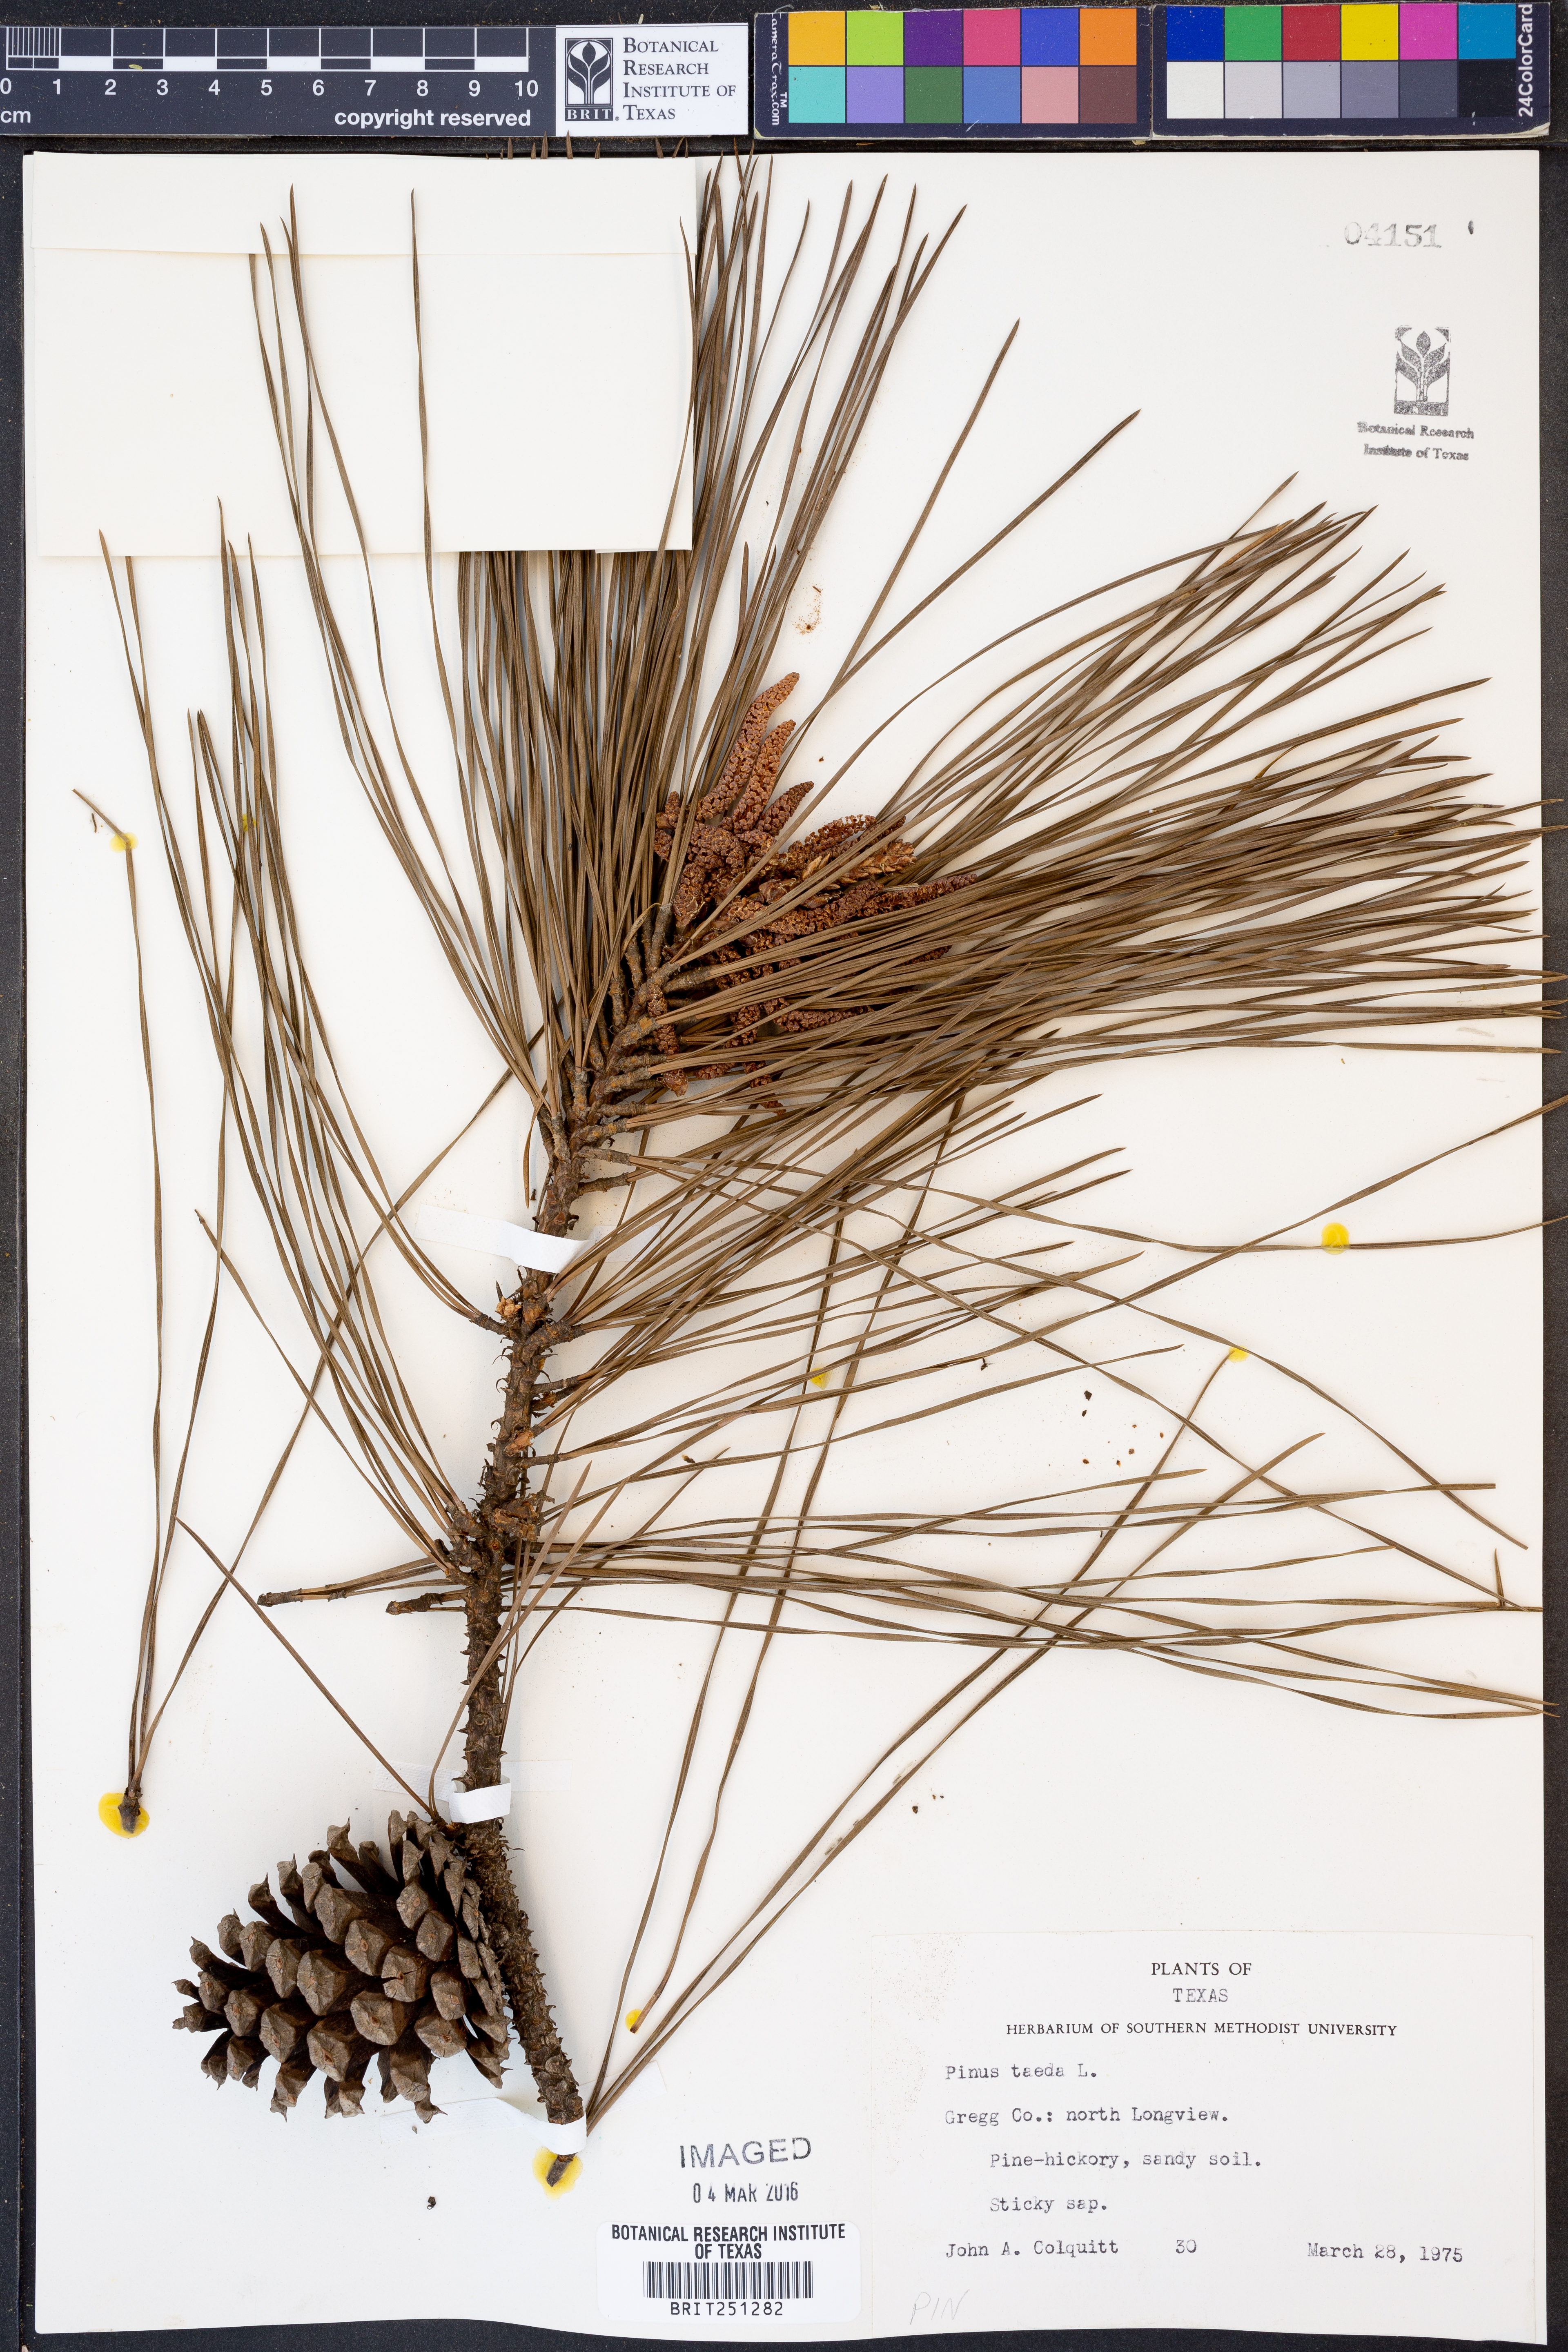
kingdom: Plantae
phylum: Tracheophyta
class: Pinopsida
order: Pinales
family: Pinaceae
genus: Pinus
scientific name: Pinus taeda
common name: Loblolly pine
